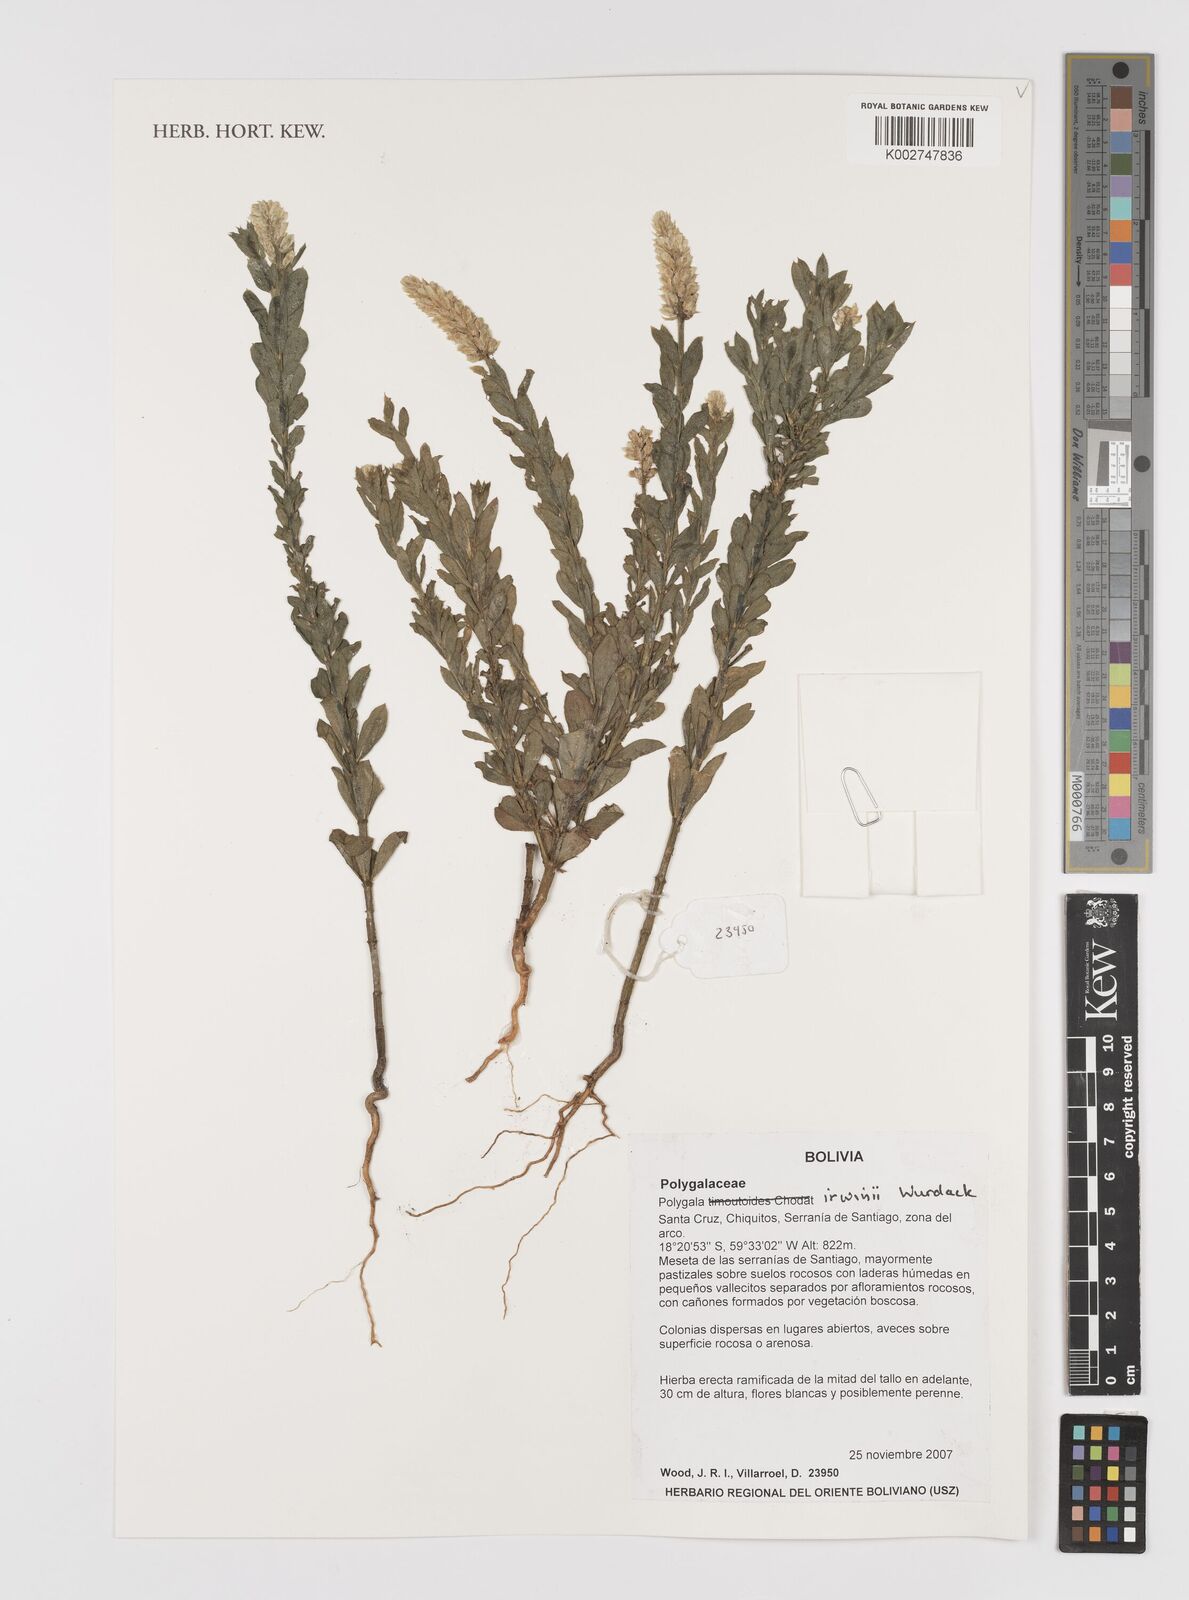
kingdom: Plantae
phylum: Tracheophyta
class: Magnoliopsida
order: Fabales
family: Polygalaceae
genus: Polygala
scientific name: Polygala irwinii
